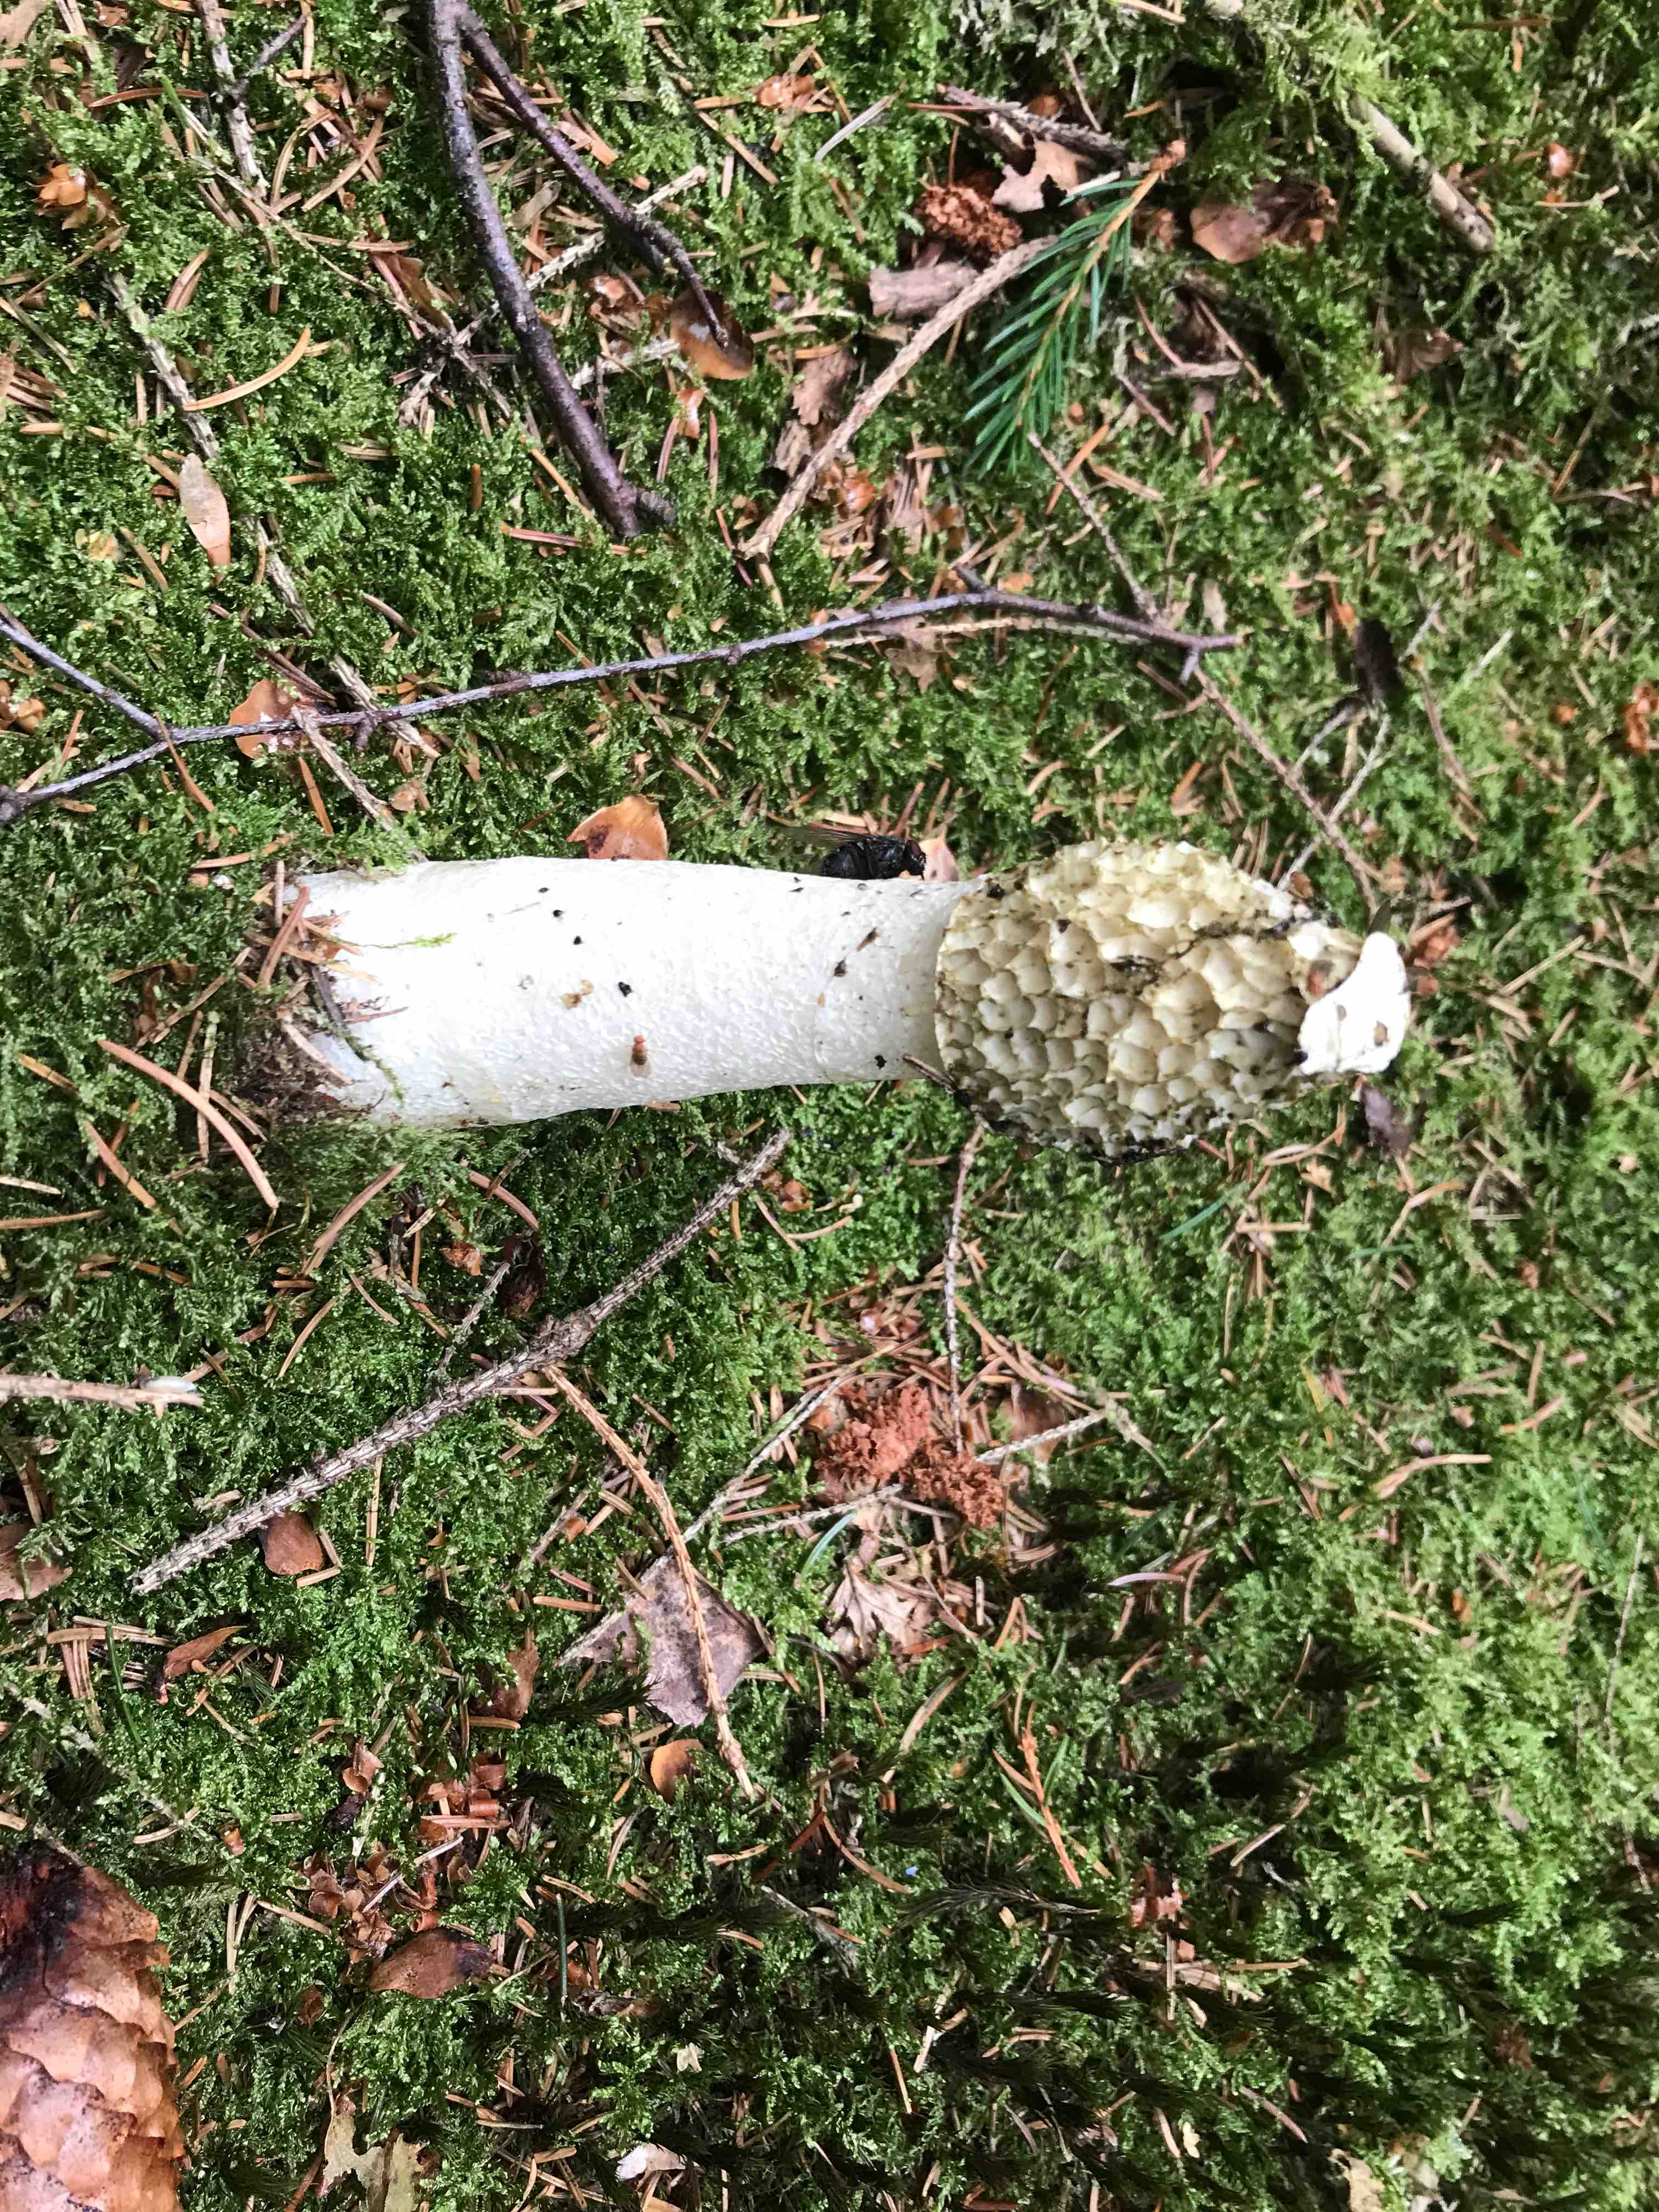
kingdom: Fungi
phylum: Basidiomycota
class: Agaricomycetes
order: Phallales
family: Phallaceae
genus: Phallus
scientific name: Phallus impudicus
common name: almindelig stinksvamp
